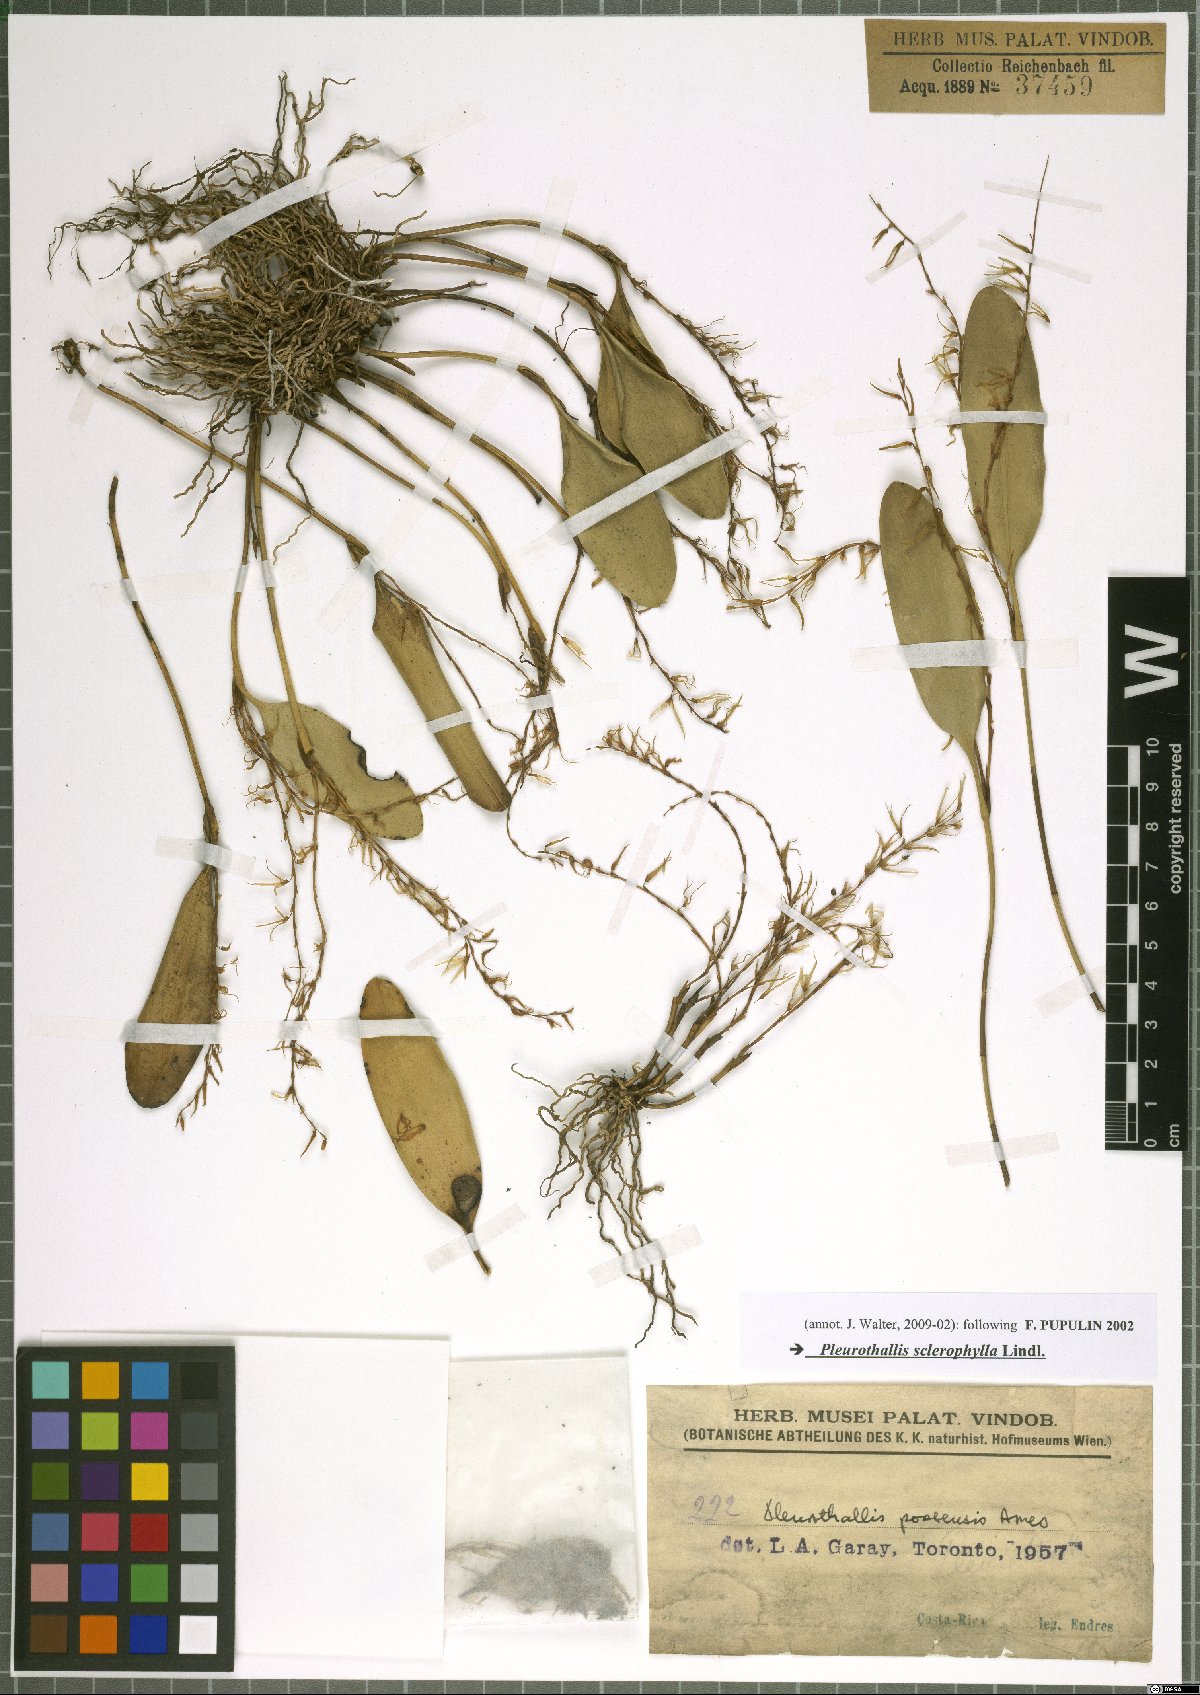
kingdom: Plantae
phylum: Tracheophyta
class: Liliopsida
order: Asparagales
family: Orchidaceae
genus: Stelis
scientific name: Stelis sclerophylla
